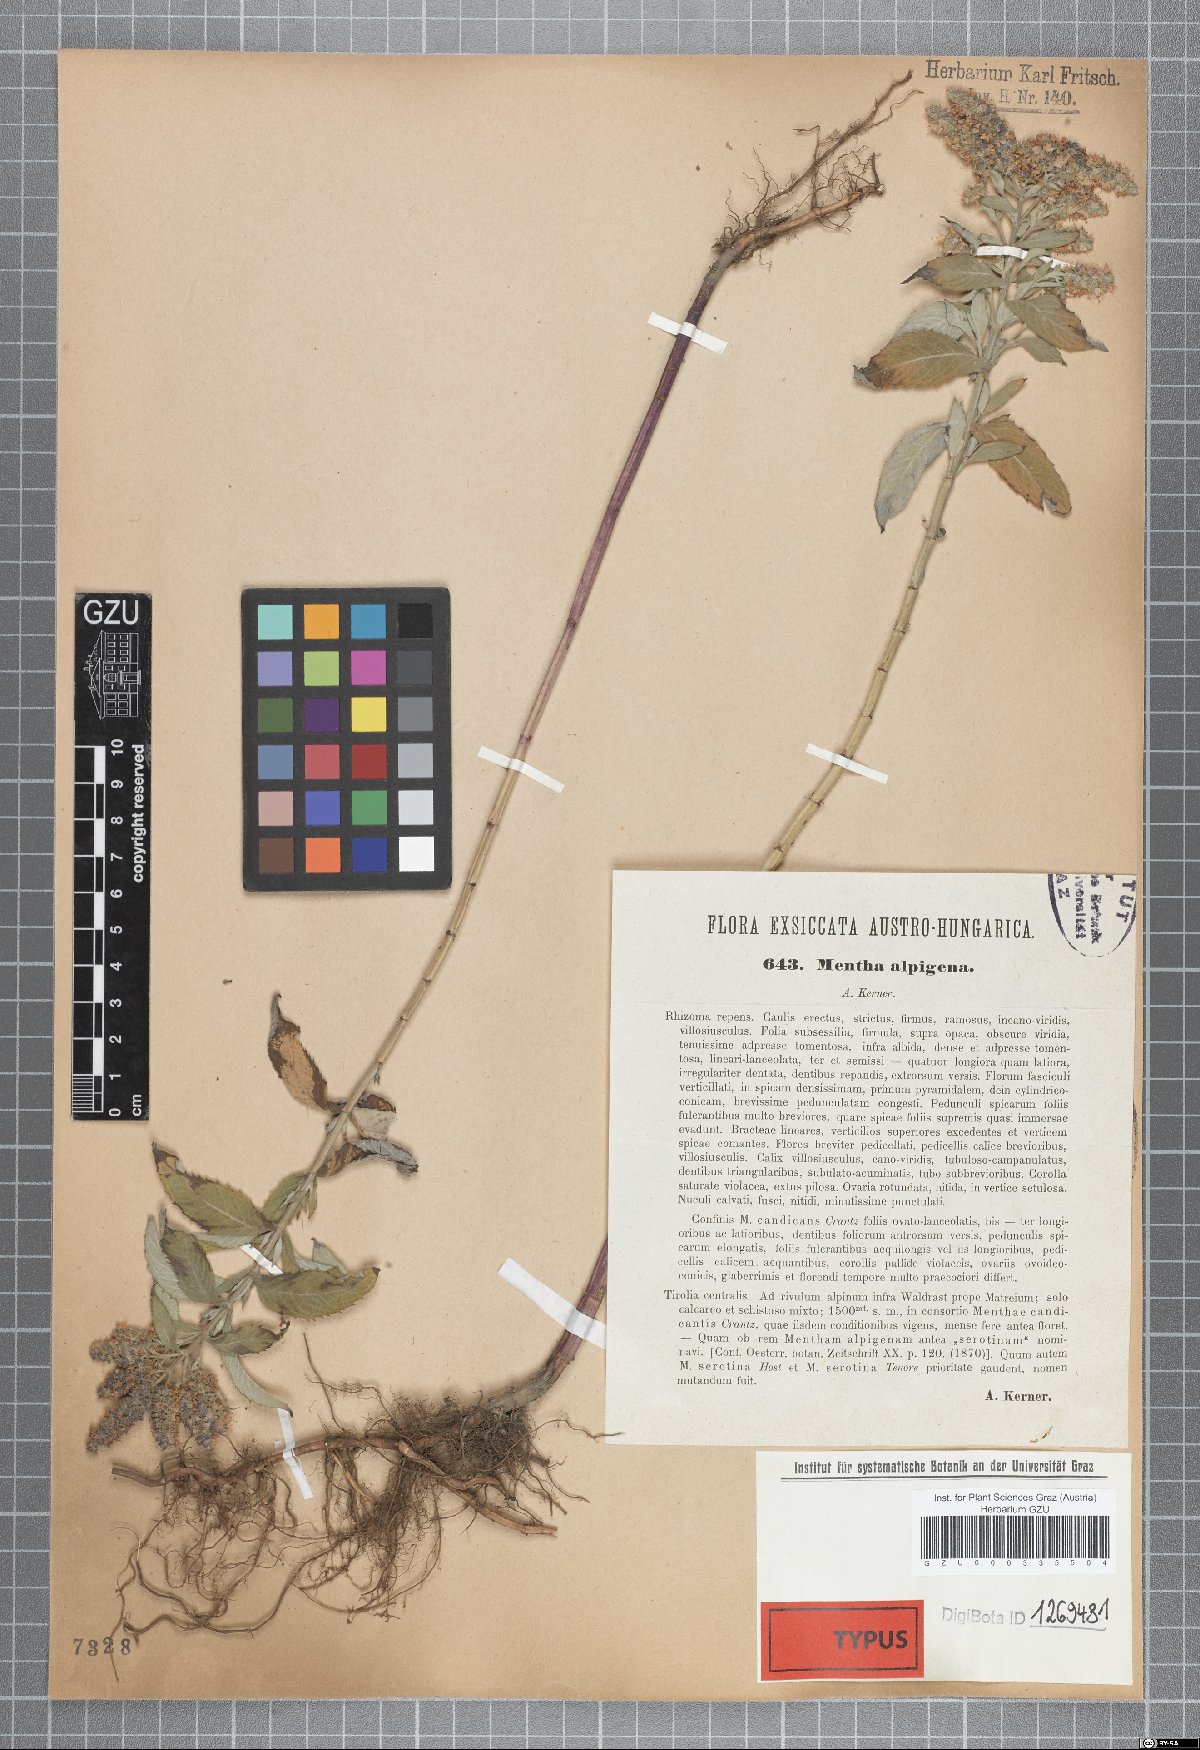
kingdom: Plantae
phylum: Tracheophyta
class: Magnoliopsida
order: Lamiales
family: Lamiaceae
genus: Mentha
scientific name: Mentha longifolia
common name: Horse mint
